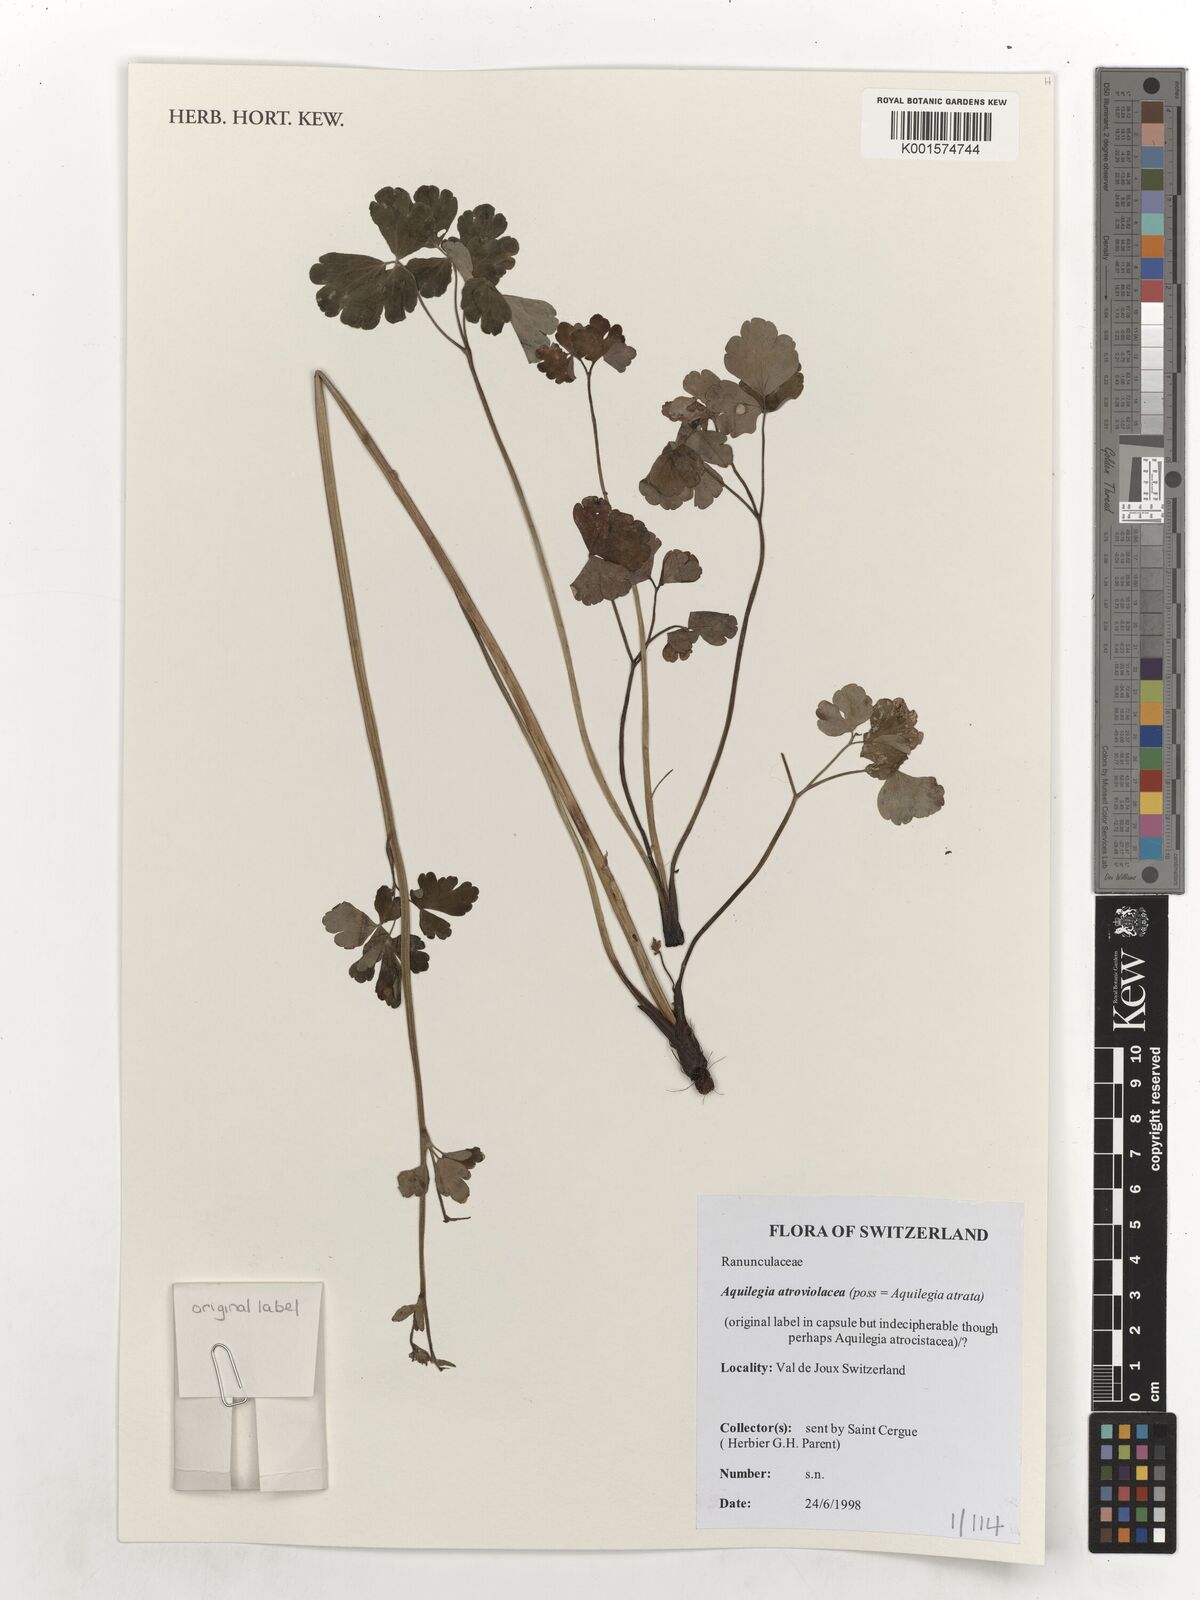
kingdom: Plantae
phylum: Tracheophyta
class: Magnoliopsida
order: Ranunculales
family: Ranunculaceae
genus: Aquilegia
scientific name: Aquilegia atrata
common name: Dark columbine
